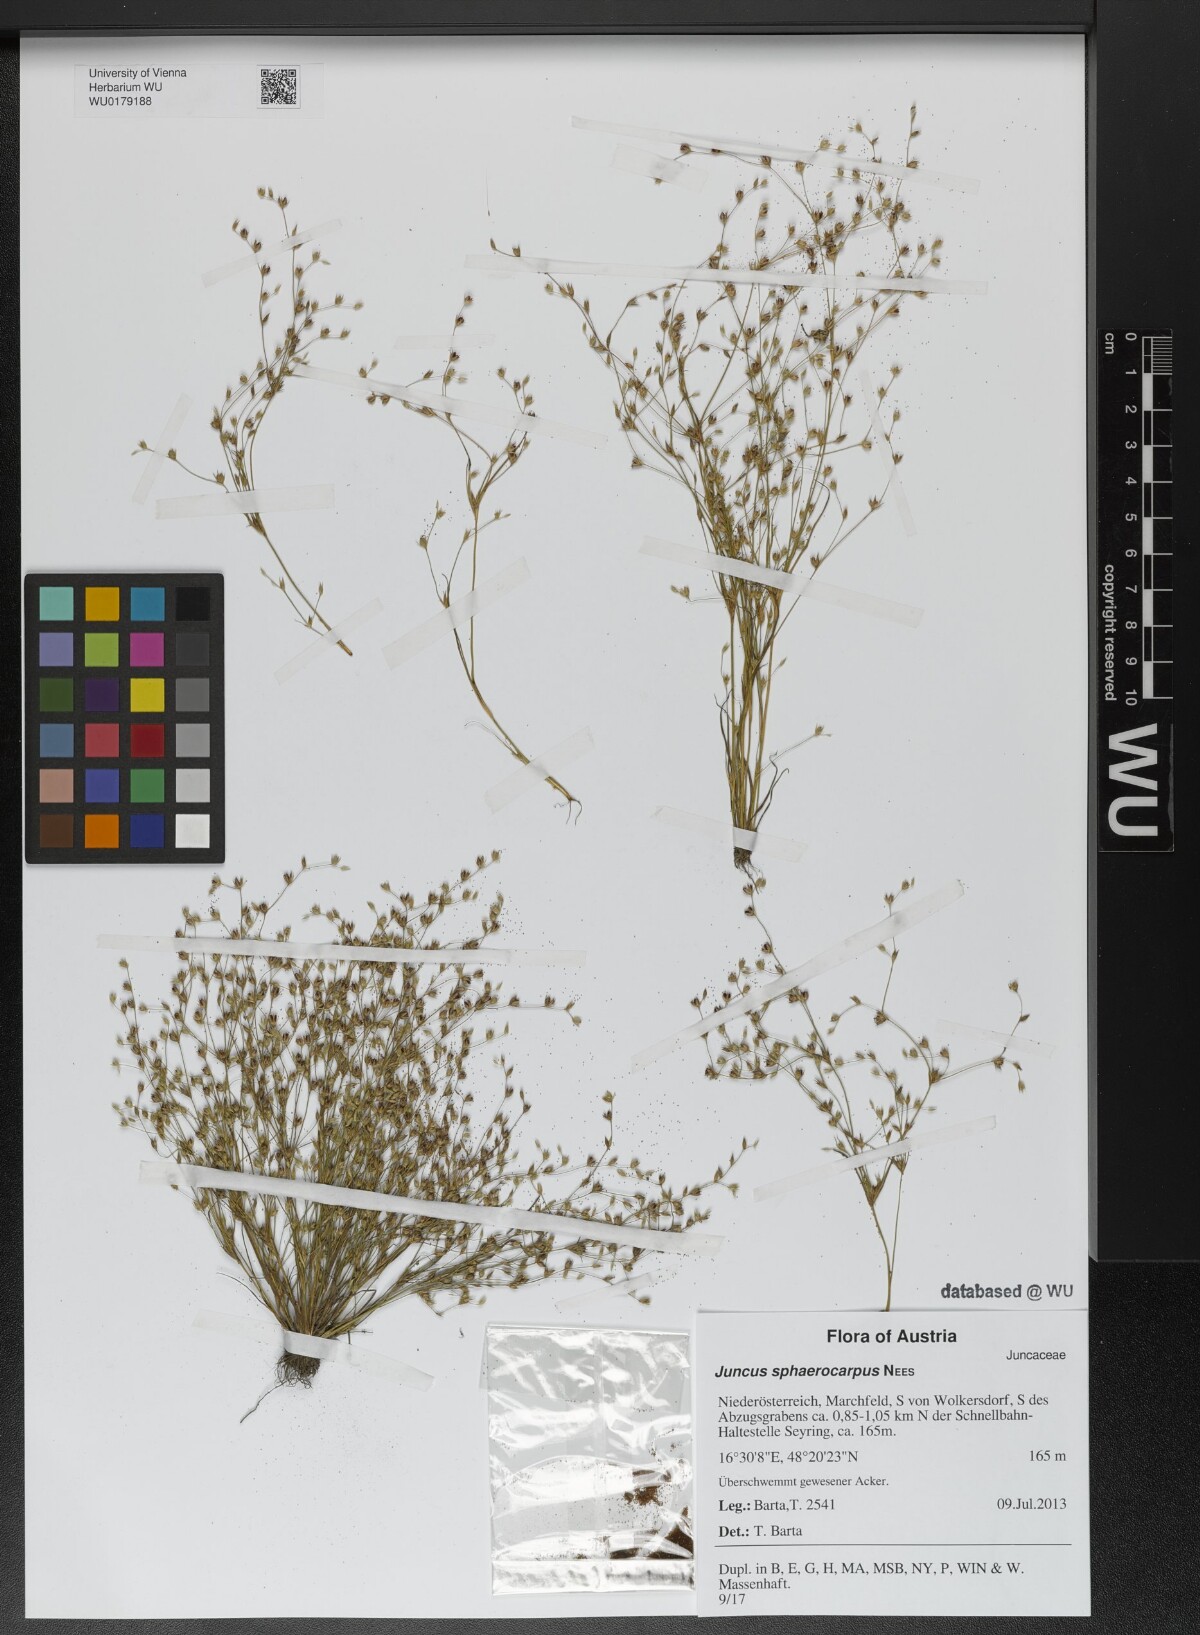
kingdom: Plantae
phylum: Tracheophyta
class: Liliopsida
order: Poales
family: Juncaceae
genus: Juncus
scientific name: Juncus sphaerocarpus
